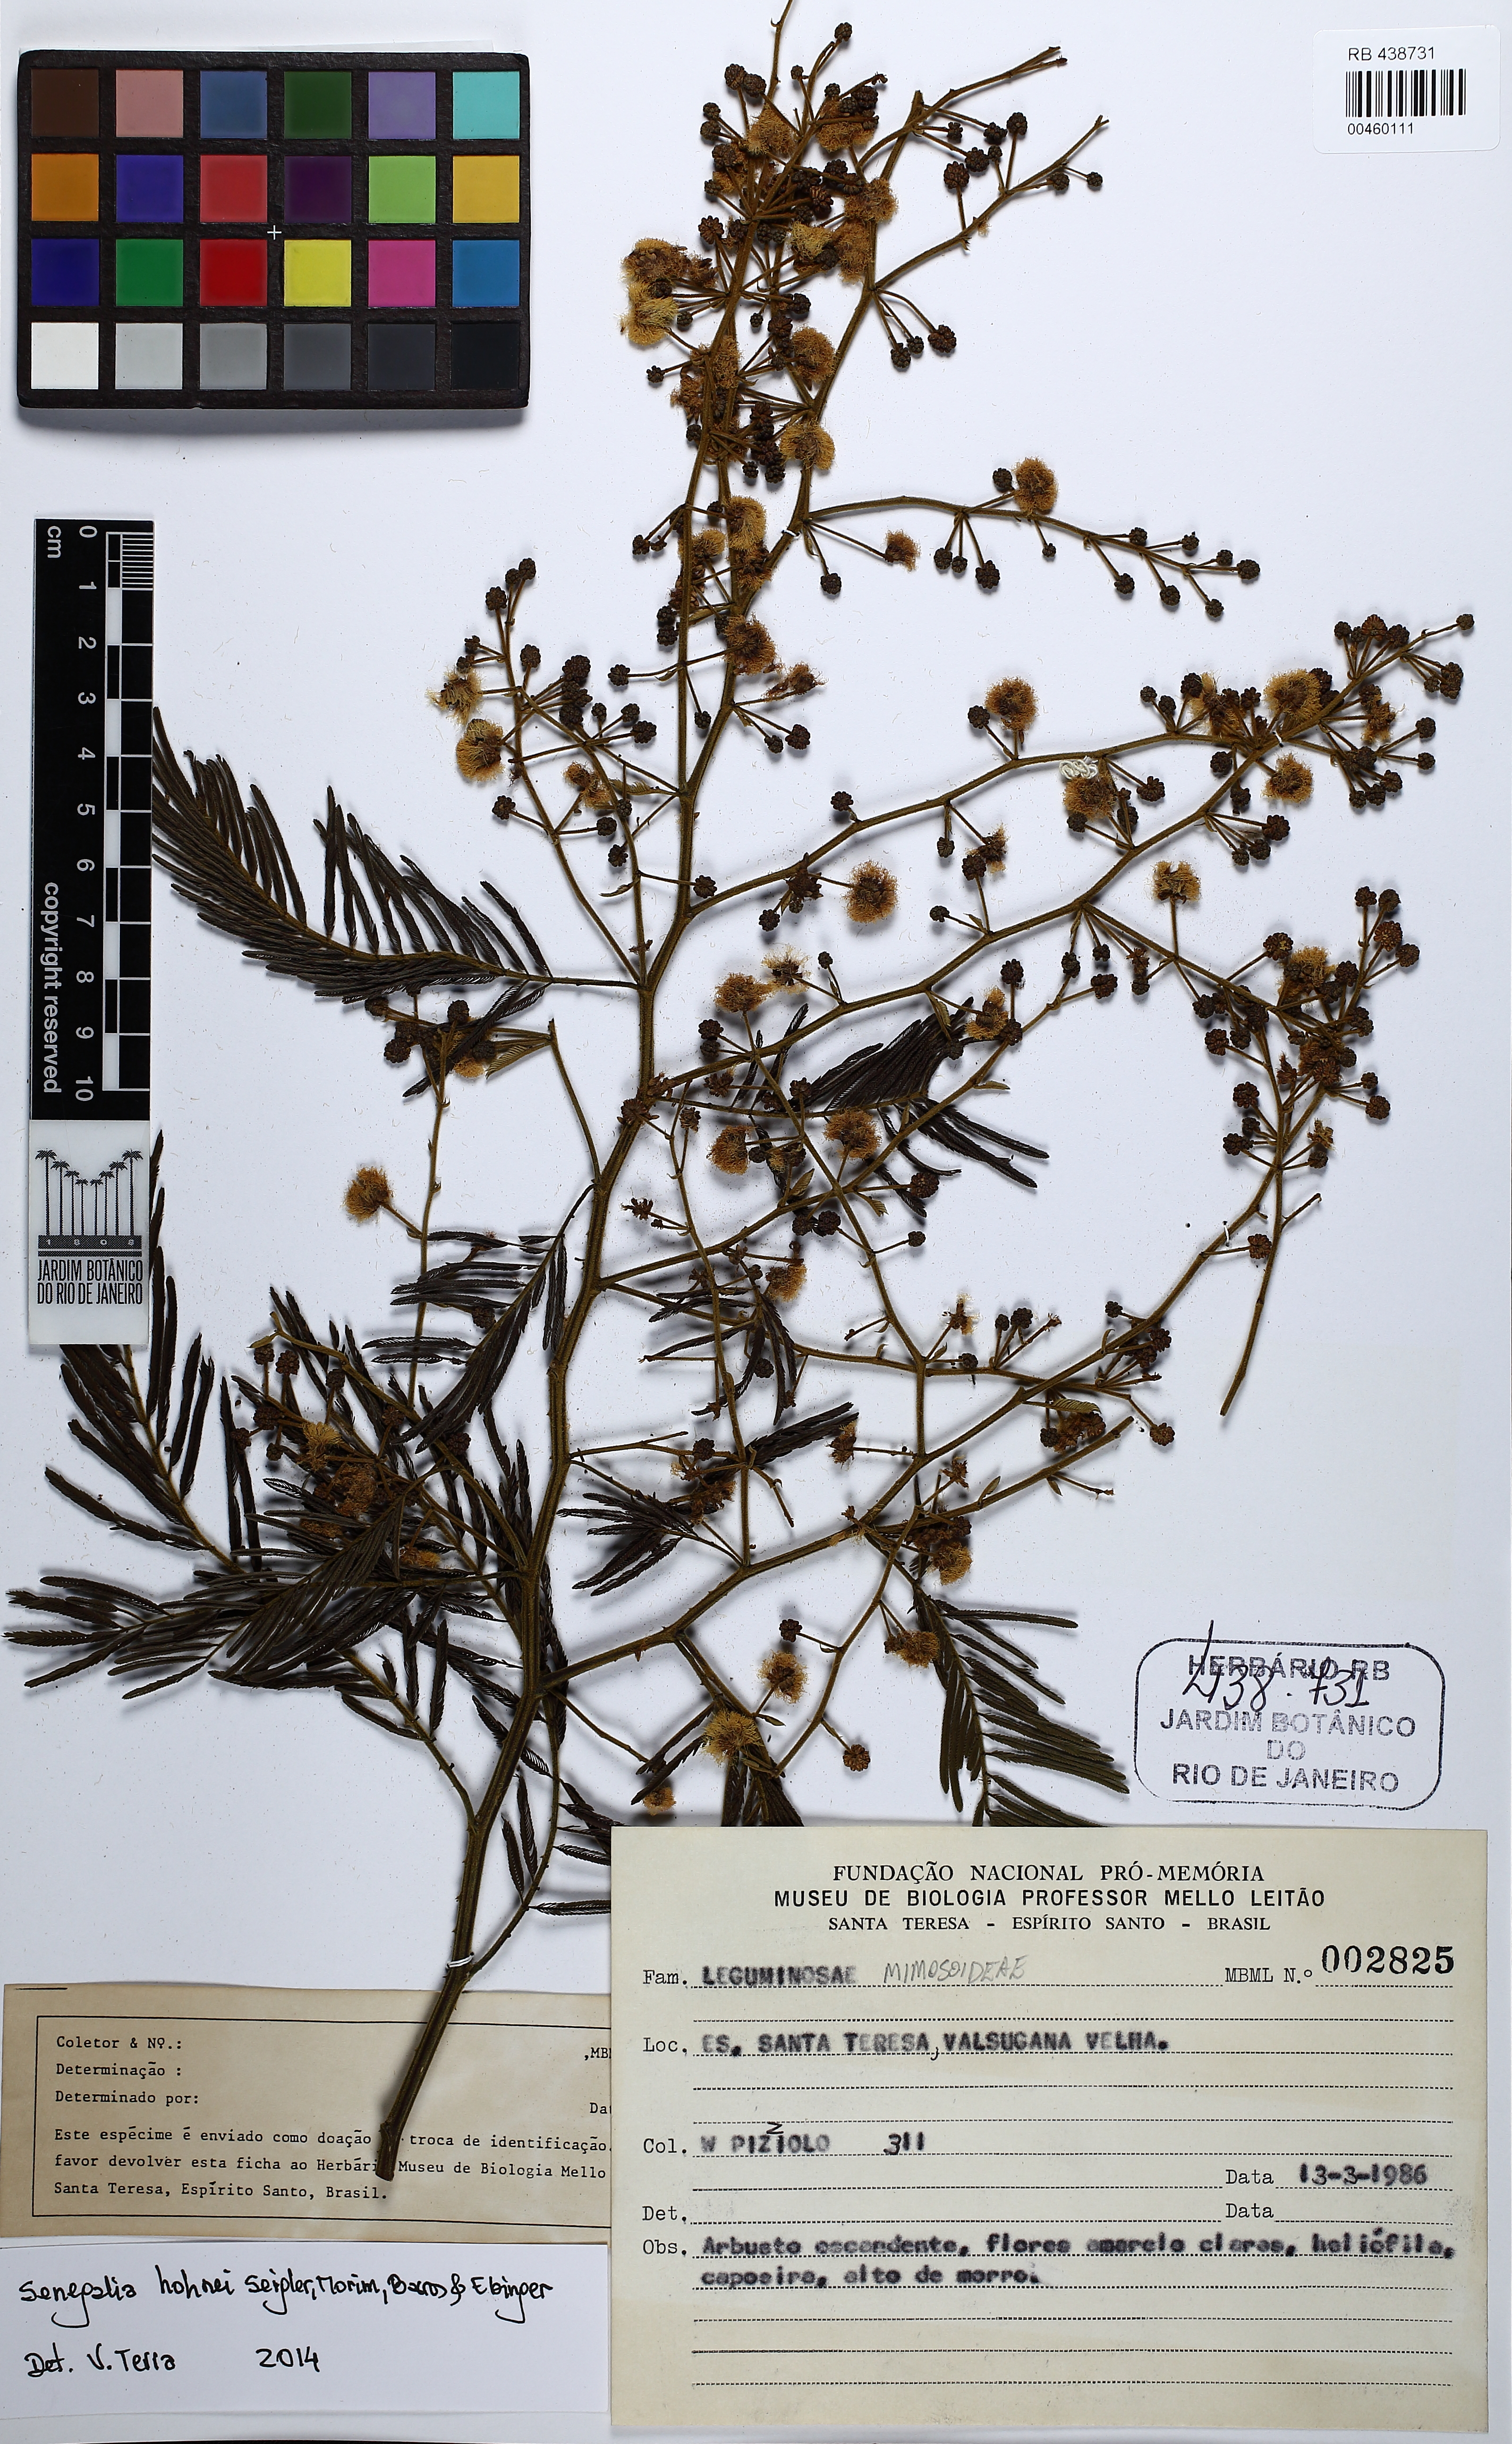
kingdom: Plantae
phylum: Tracheophyta
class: Magnoliopsida
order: Fabales
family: Fabaceae
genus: Senegalia
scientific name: Senegalia hoehnei
